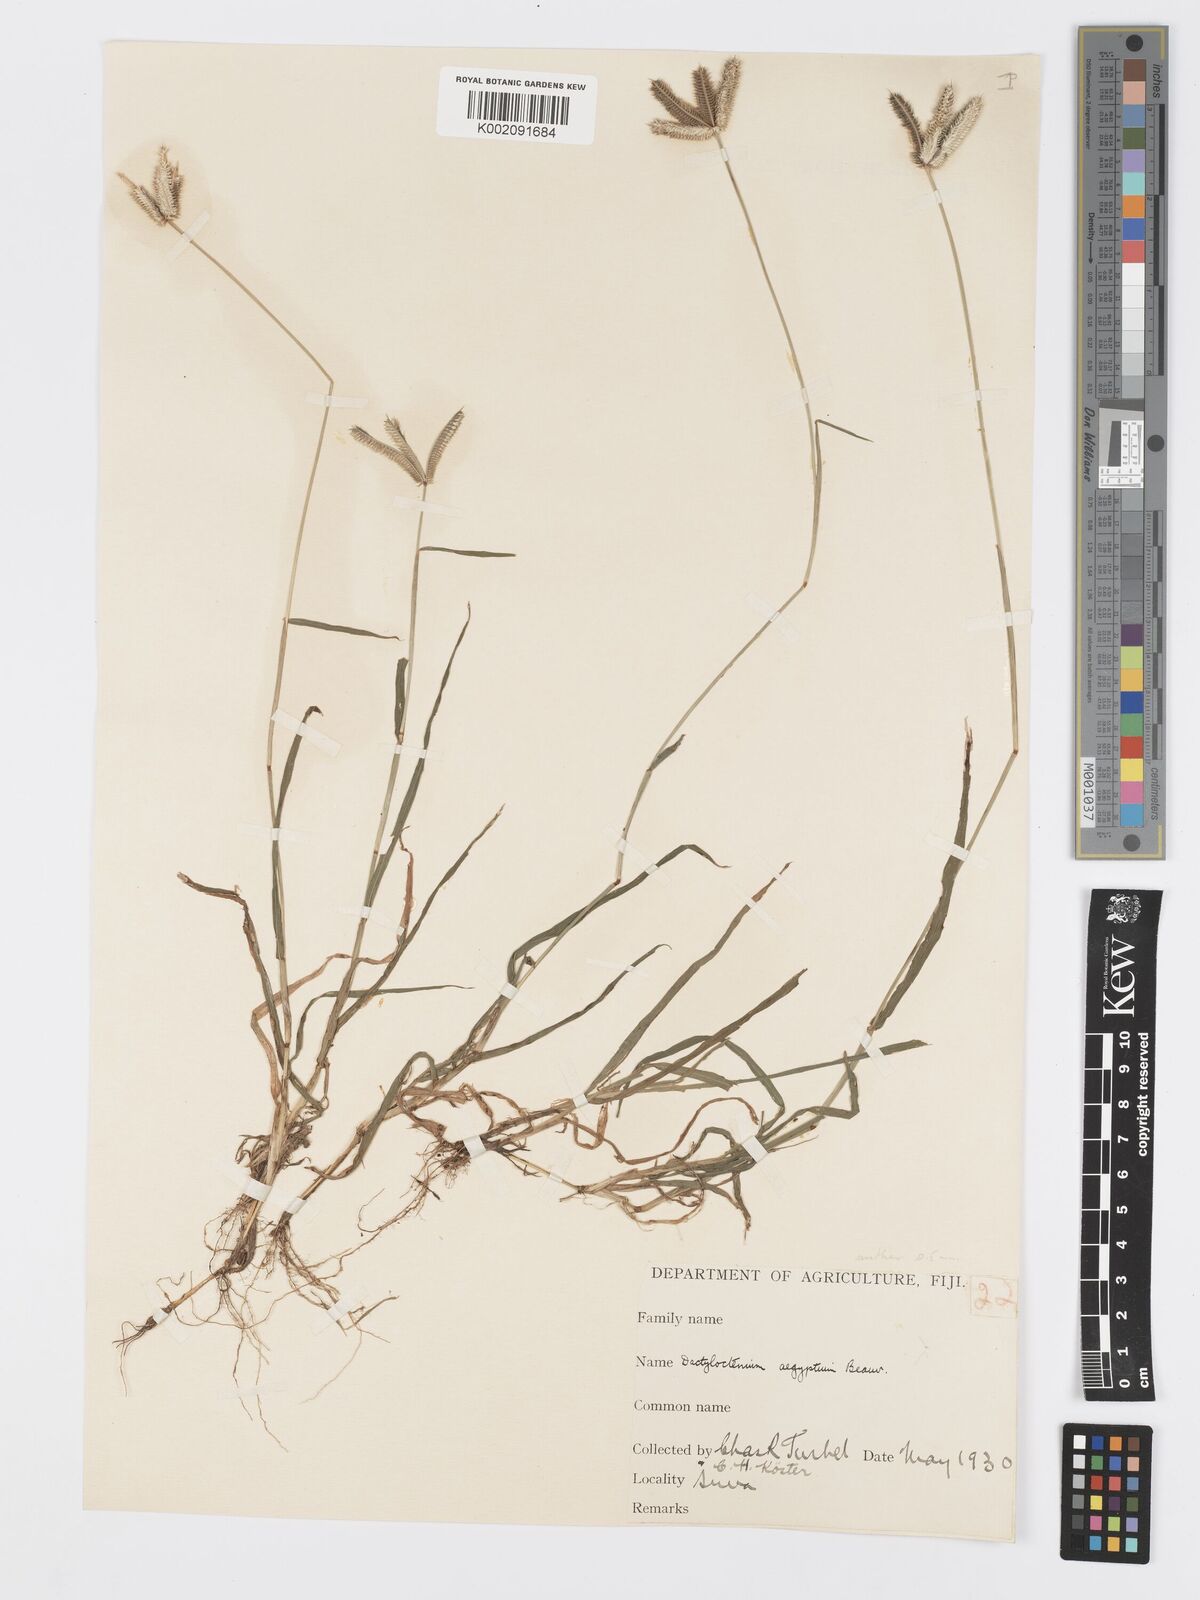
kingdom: Plantae
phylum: Tracheophyta
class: Liliopsida
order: Poales
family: Poaceae
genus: Dactyloctenium
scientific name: Dactyloctenium aegyptium
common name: Egyptian grass
